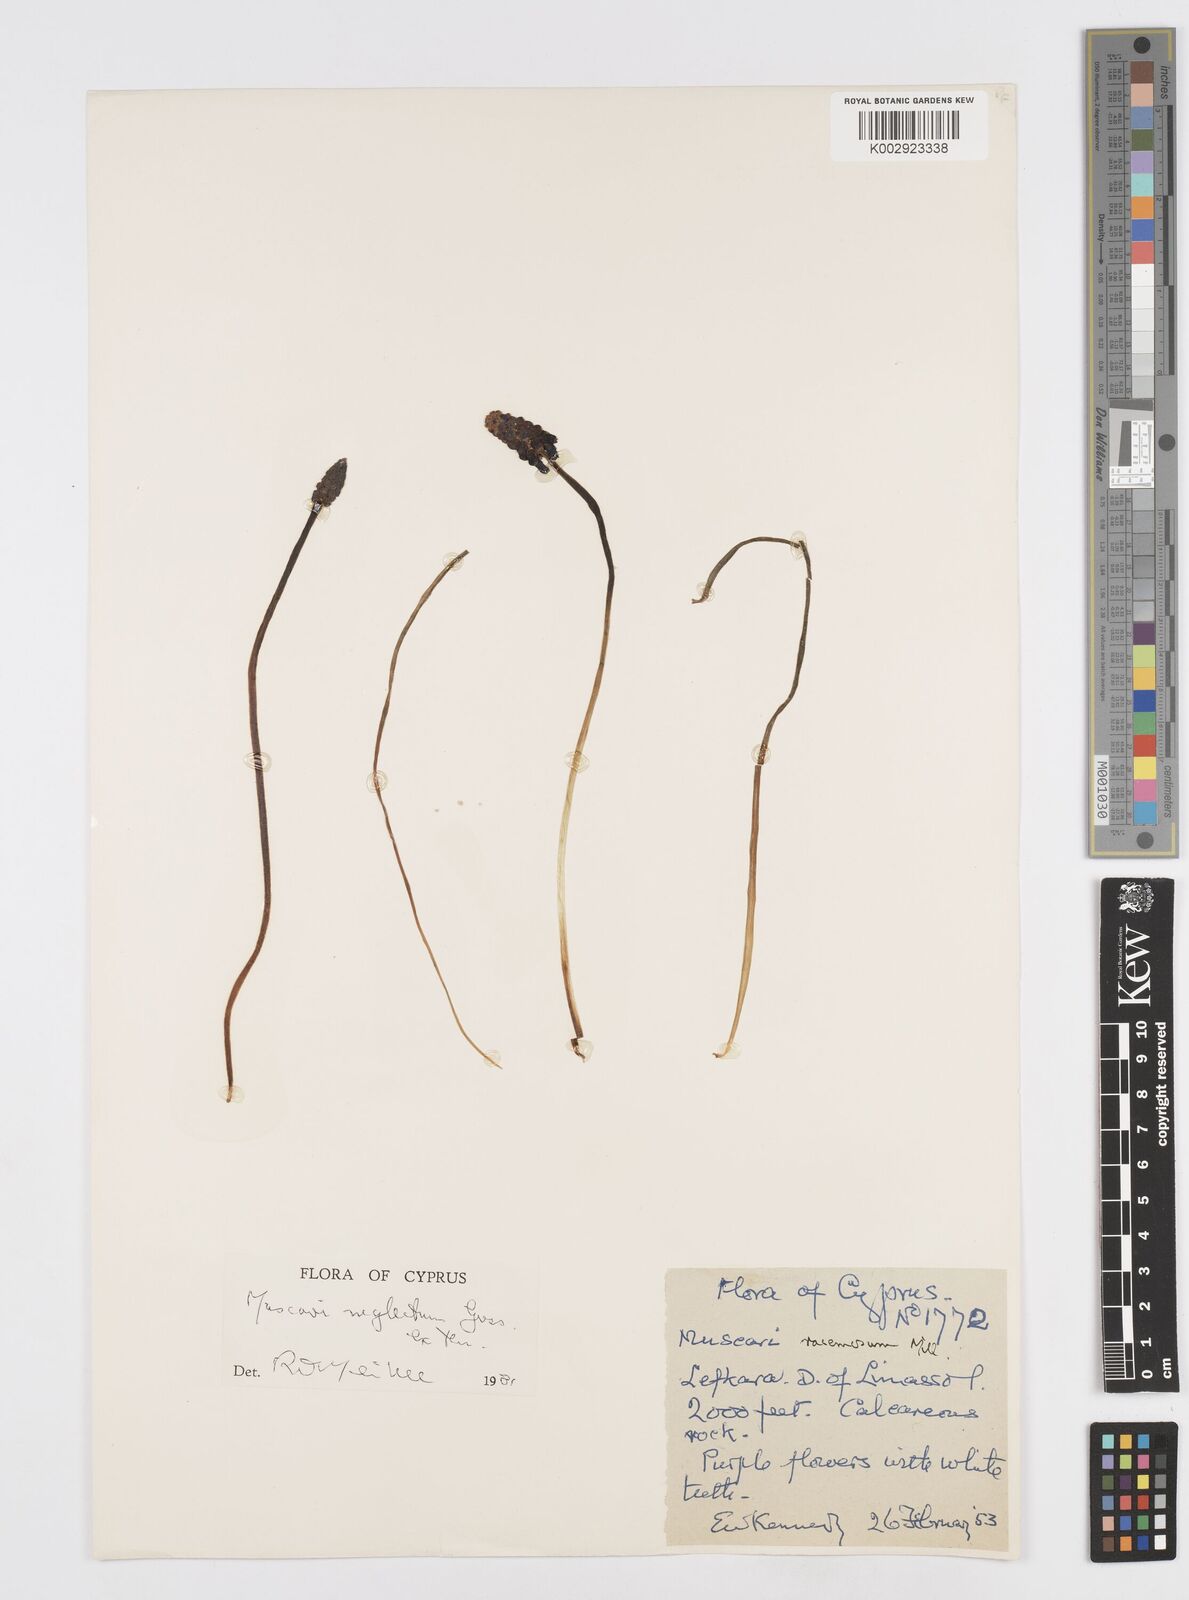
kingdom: Plantae
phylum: Tracheophyta
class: Liliopsida
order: Asparagales
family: Asparagaceae
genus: Muscari
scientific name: Muscari neglectum
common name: Grape-hyacinth
